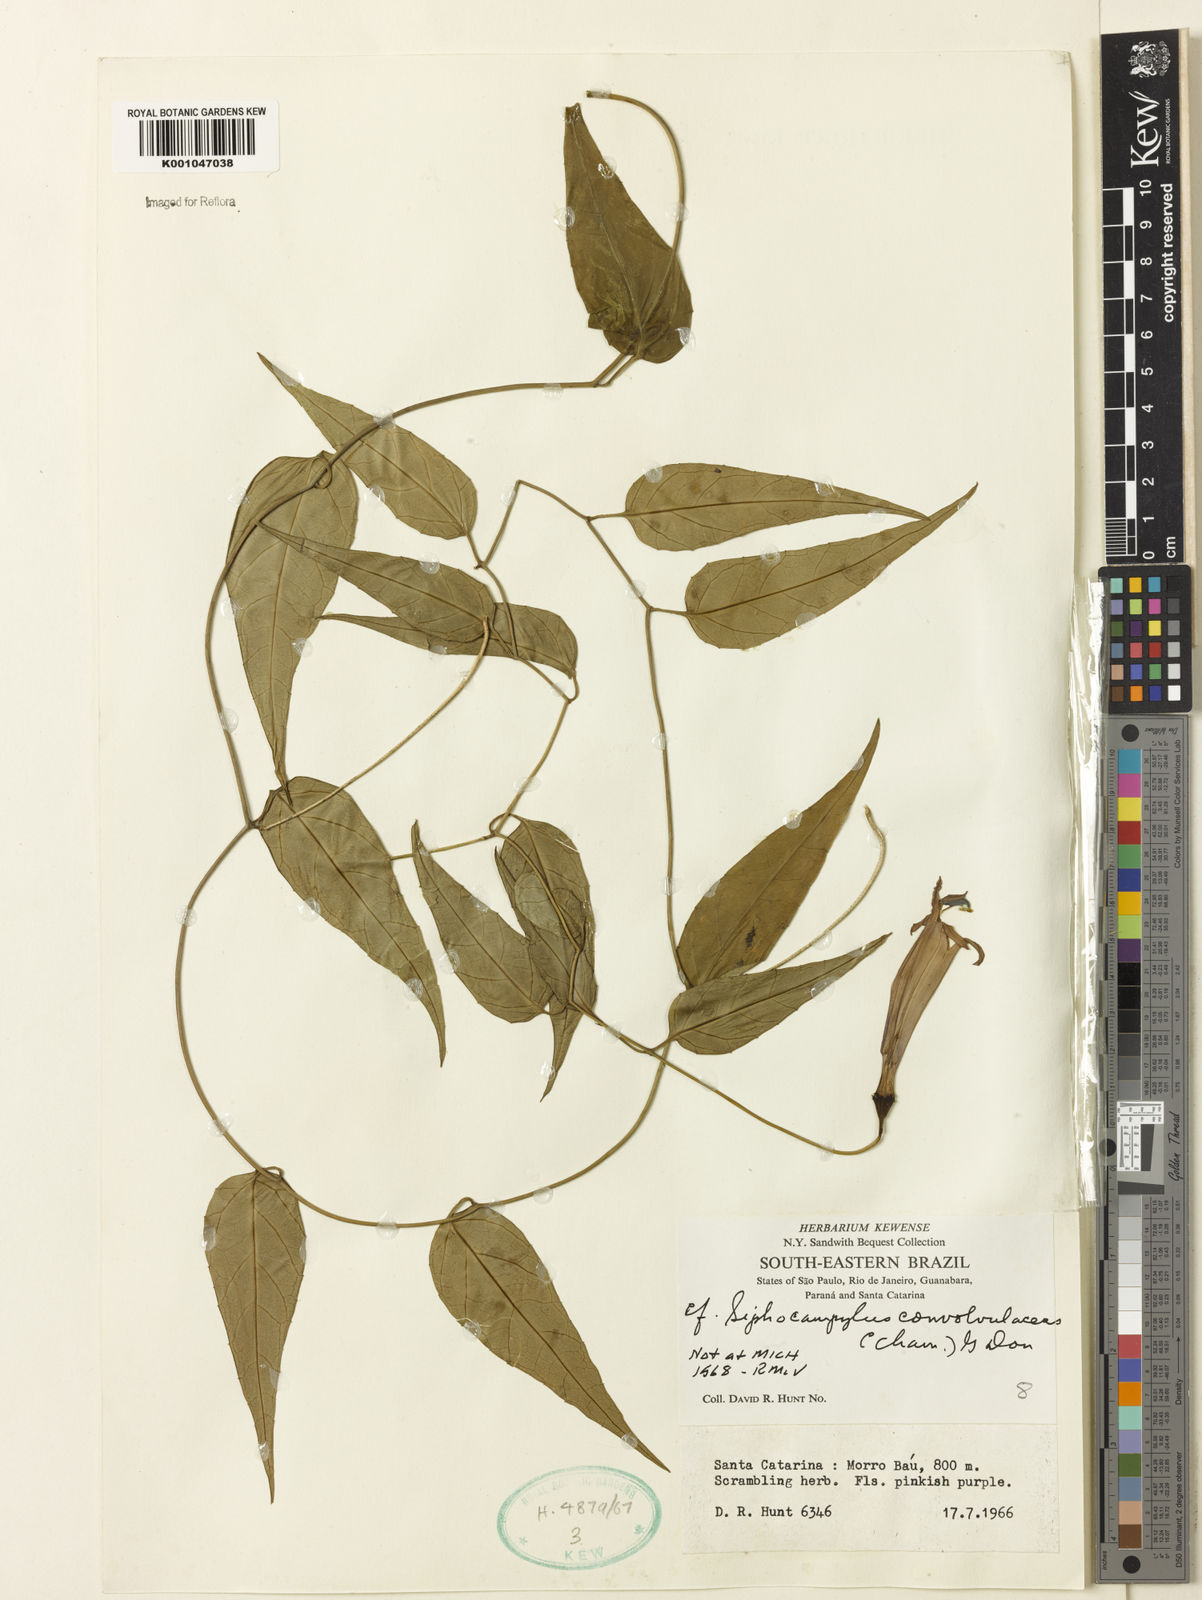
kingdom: Plantae
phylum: Tracheophyta
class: Magnoliopsida
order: Asterales
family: Campanulaceae
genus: Siphocampylus
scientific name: Siphocampylus convolvulaceus
